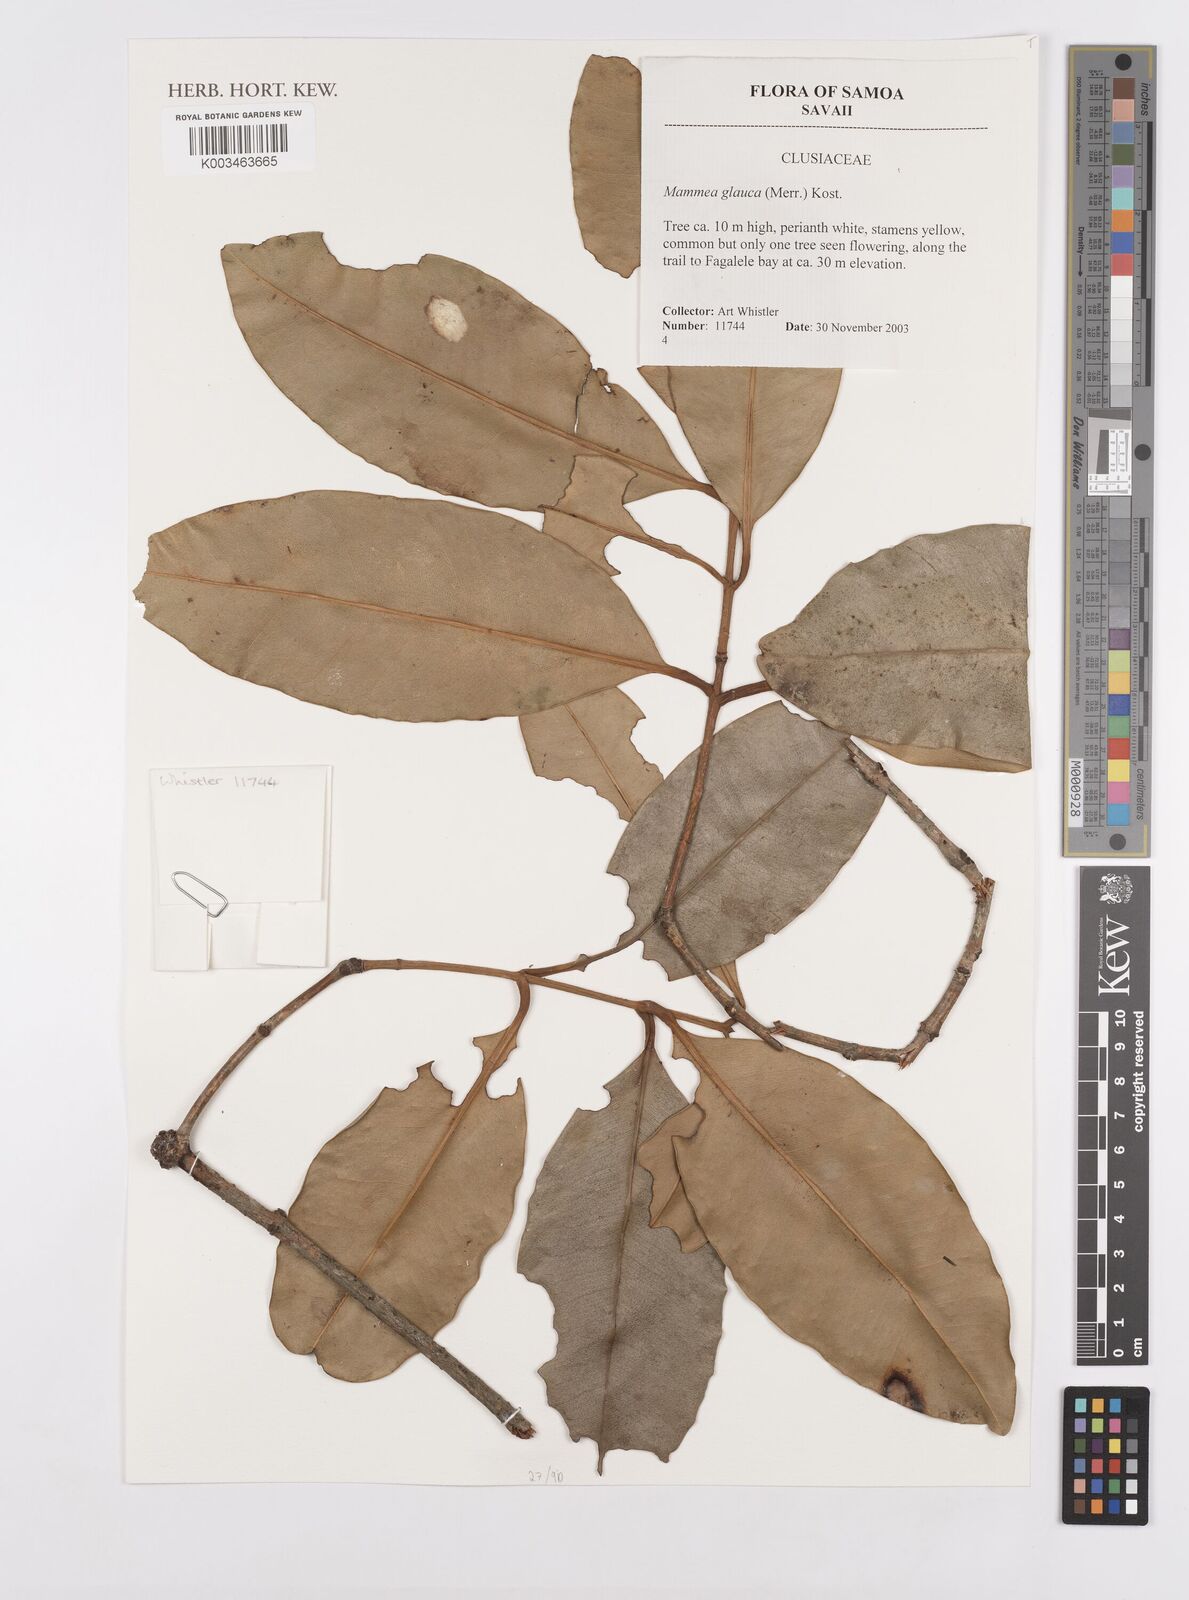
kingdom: Plantae
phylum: Tracheophyta
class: Magnoliopsida
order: Malpighiales
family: Calophyllaceae
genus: Mammea
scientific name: Mammea glauca
